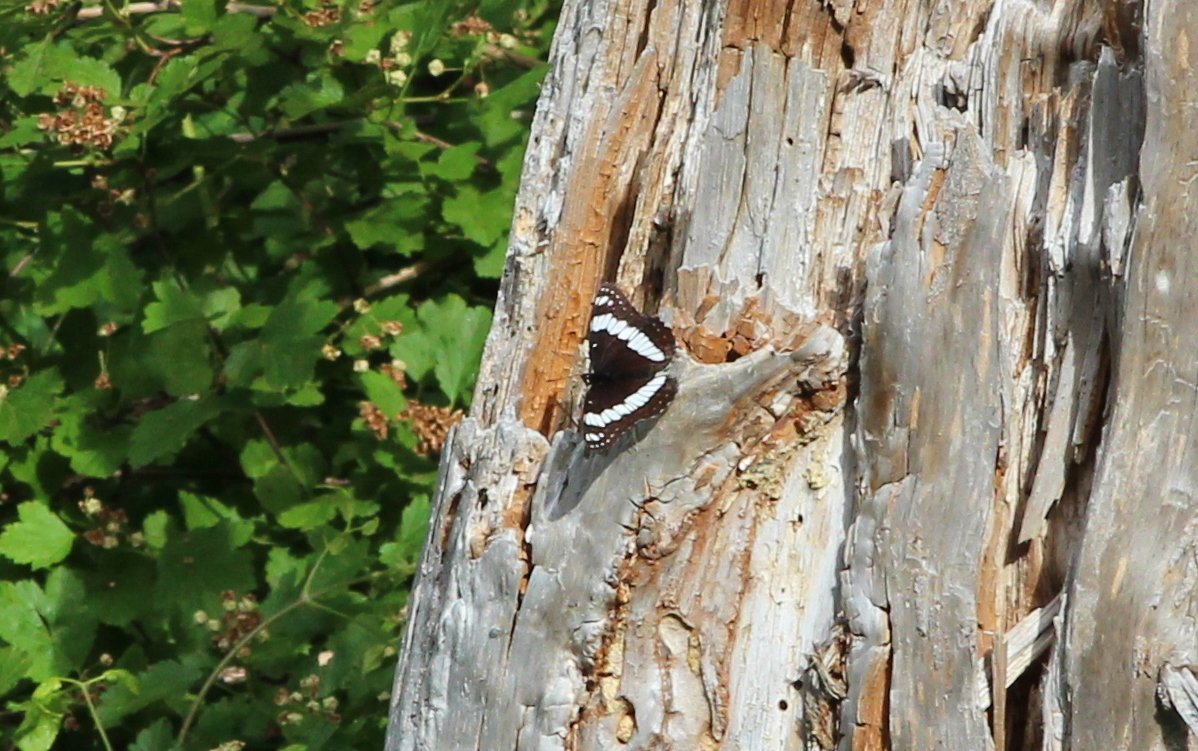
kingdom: Animalia
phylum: Arthropoda
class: Insecta
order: Lepidoptera
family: Nymphalidae
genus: Limenitis
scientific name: Limenitis weidemeyerii
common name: Weidemeyer's Admiral
